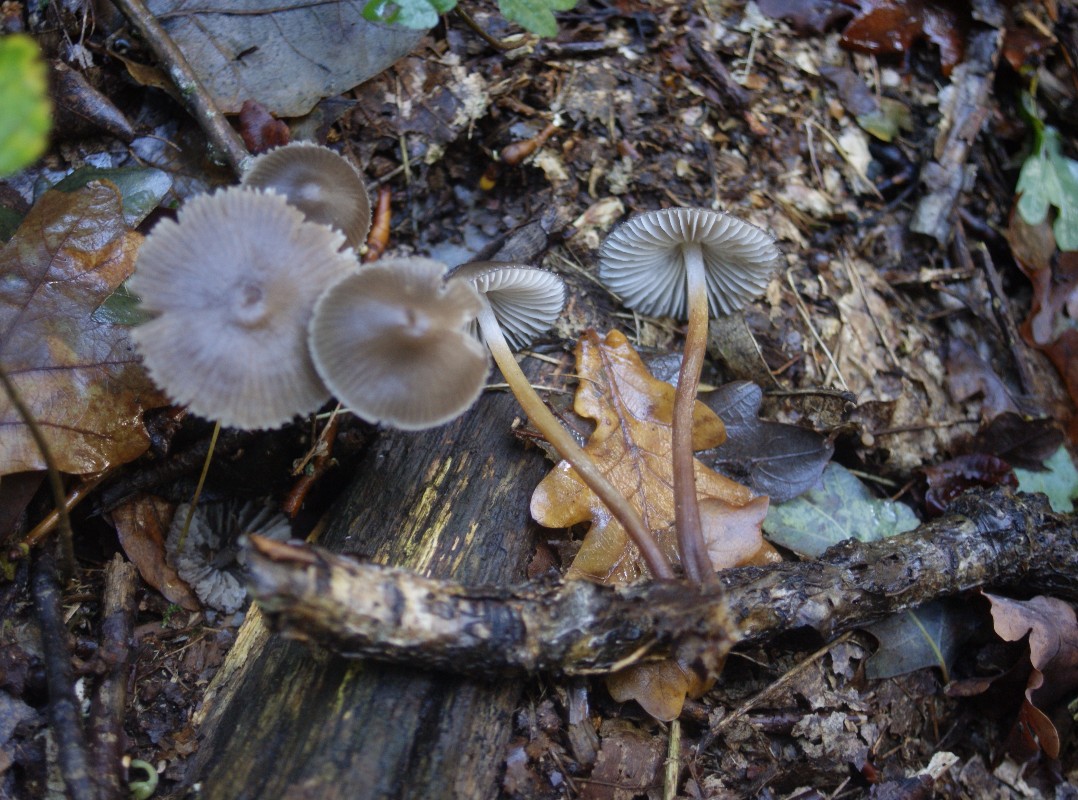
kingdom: Fungi
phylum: Basidiomycota
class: Agaricomycetes
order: Agaricales
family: Mycenaceae
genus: Mycena
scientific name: Mycena inclinata
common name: nikkende huesvamp
